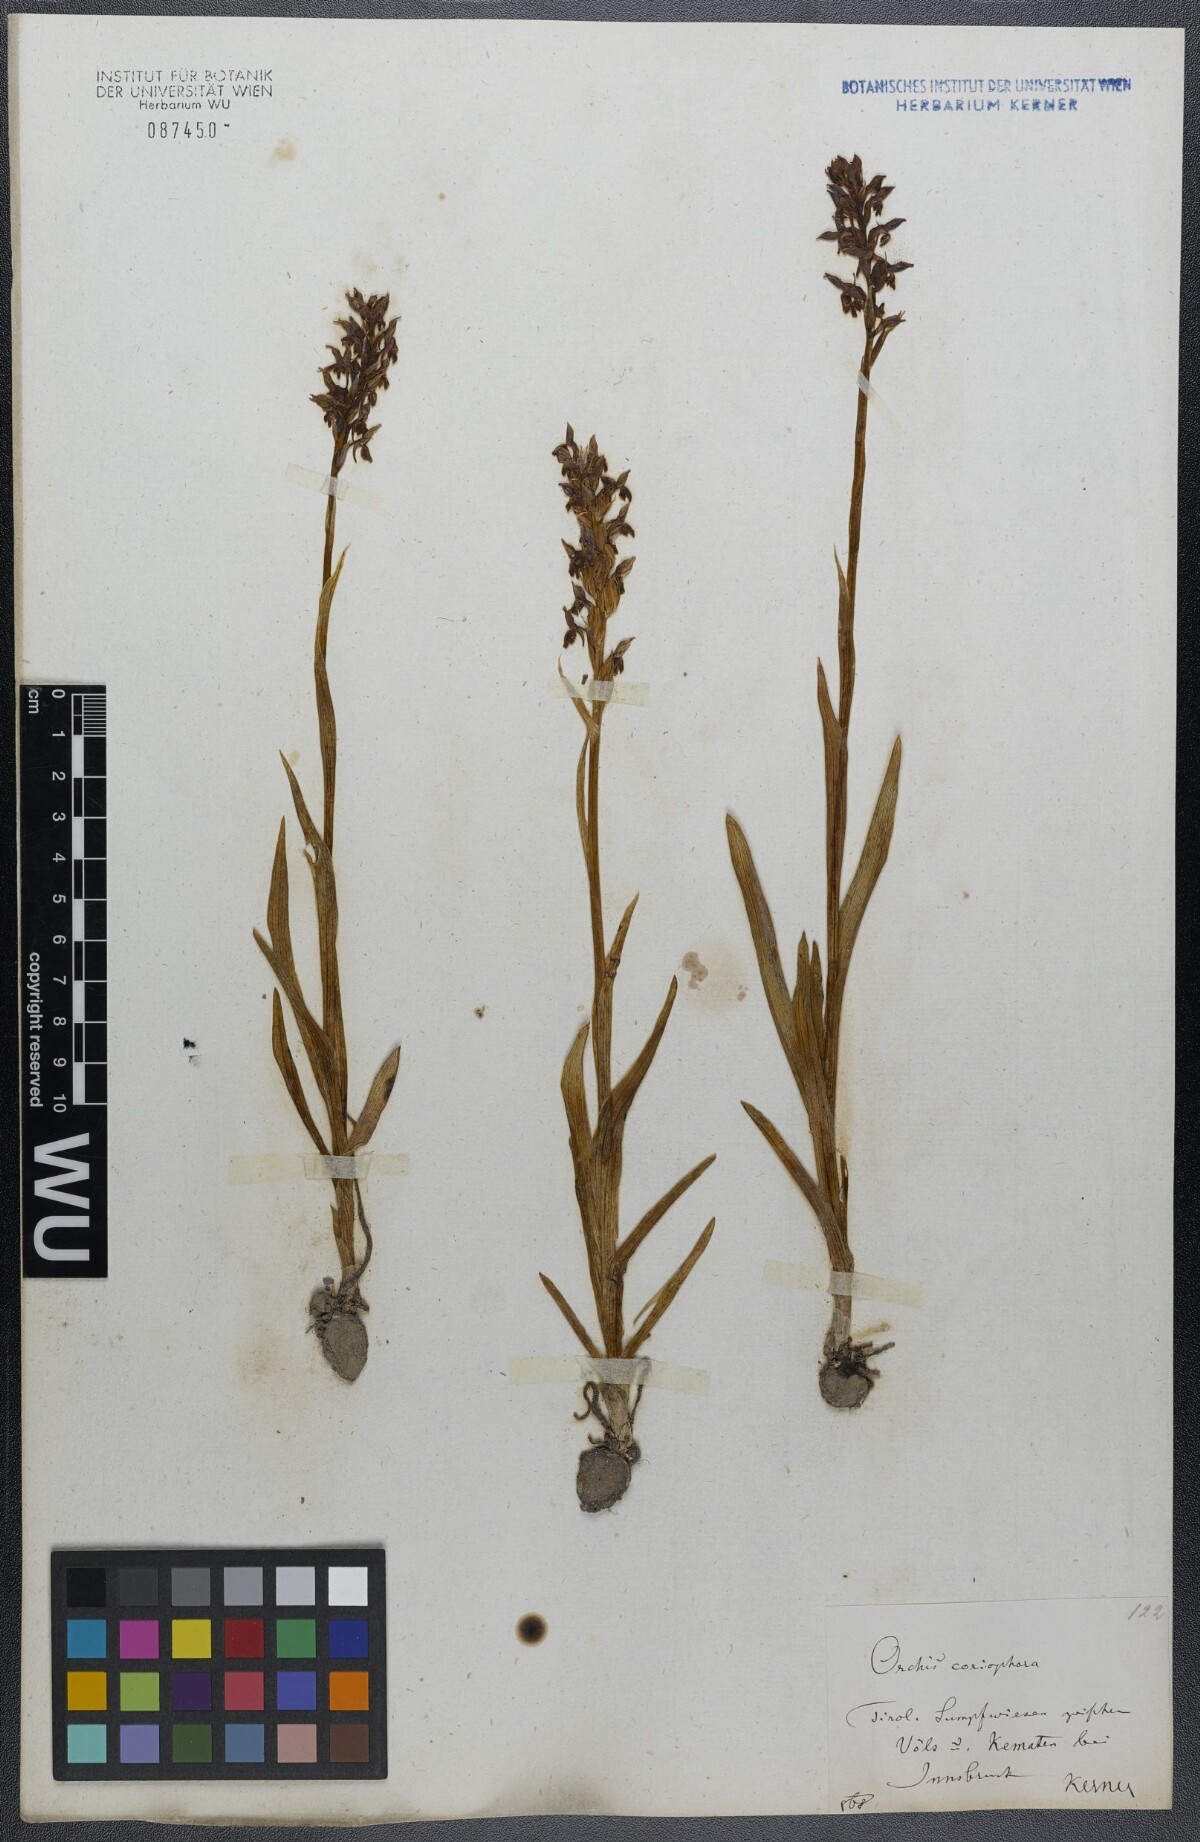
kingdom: Plantae
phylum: Tracheophyta
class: Liliopsida
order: Asparagales
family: Orchidaceae
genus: Anacamptis
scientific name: Anacamptis coriophora
